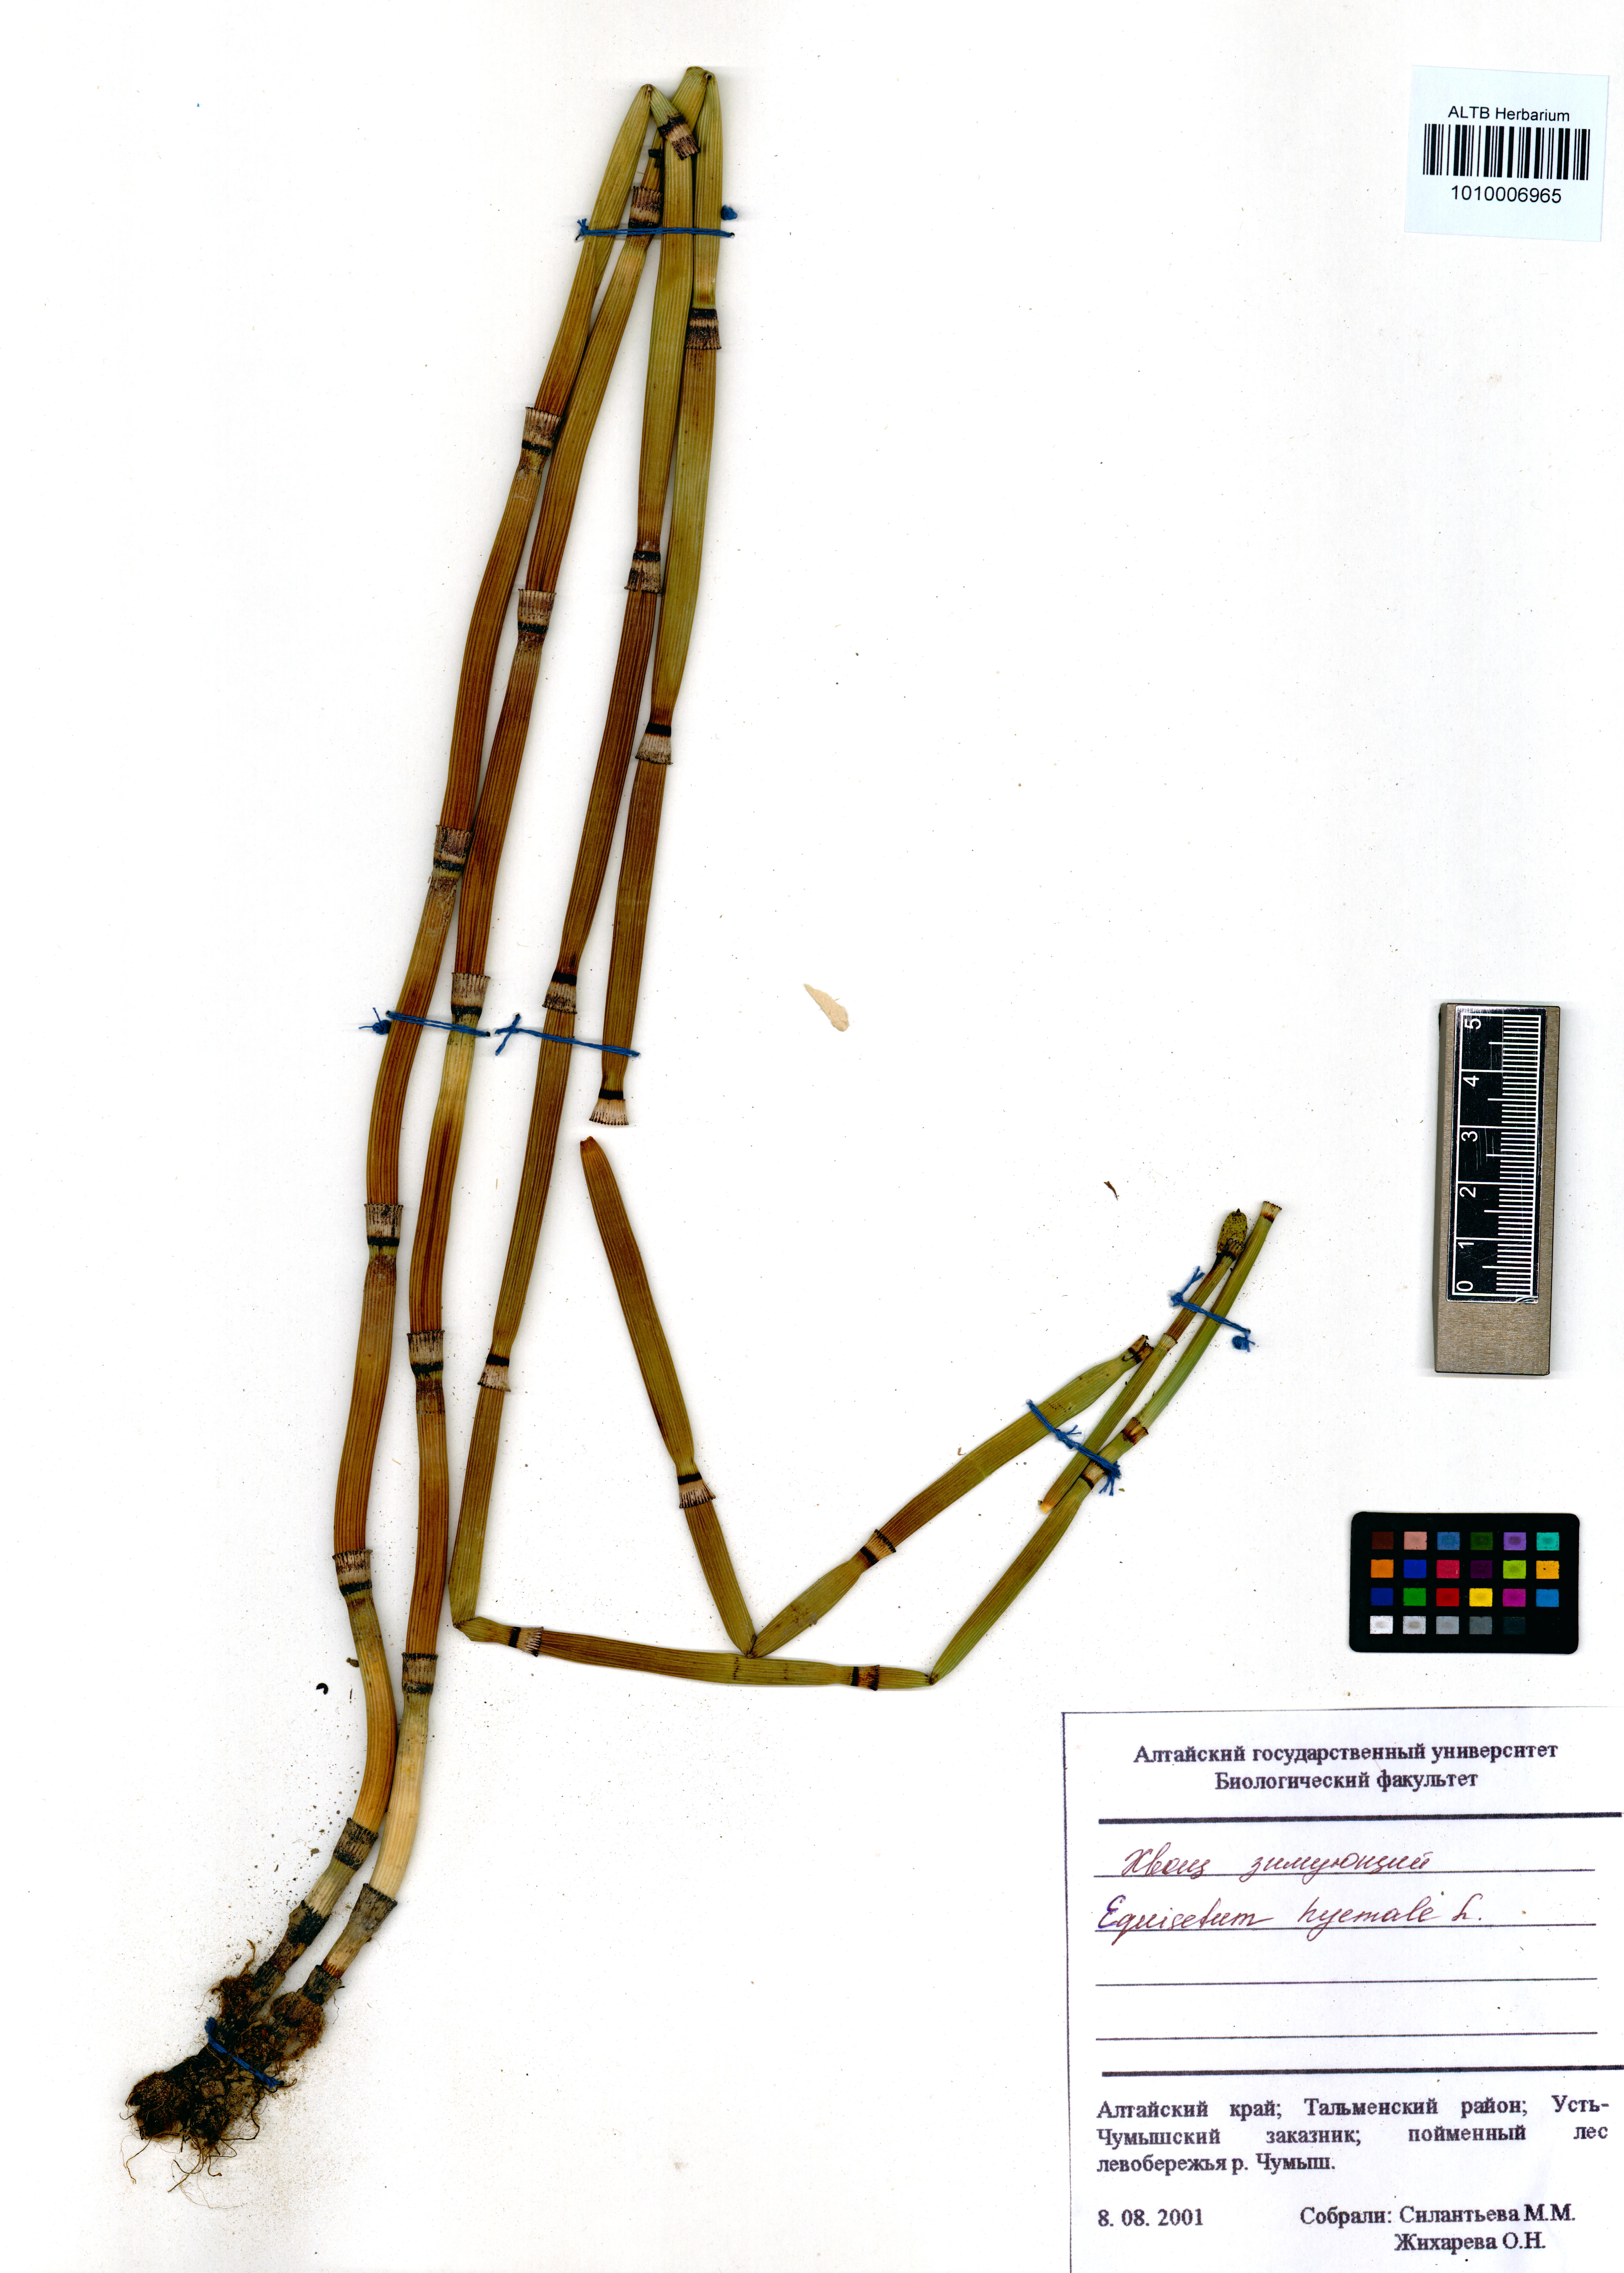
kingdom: Plantae
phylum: Tracheophyta
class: Polypodiopsida
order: Equisetales
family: Equisetaceae
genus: Equisetum
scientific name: Equisetum hyemale
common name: Rough horsetail
